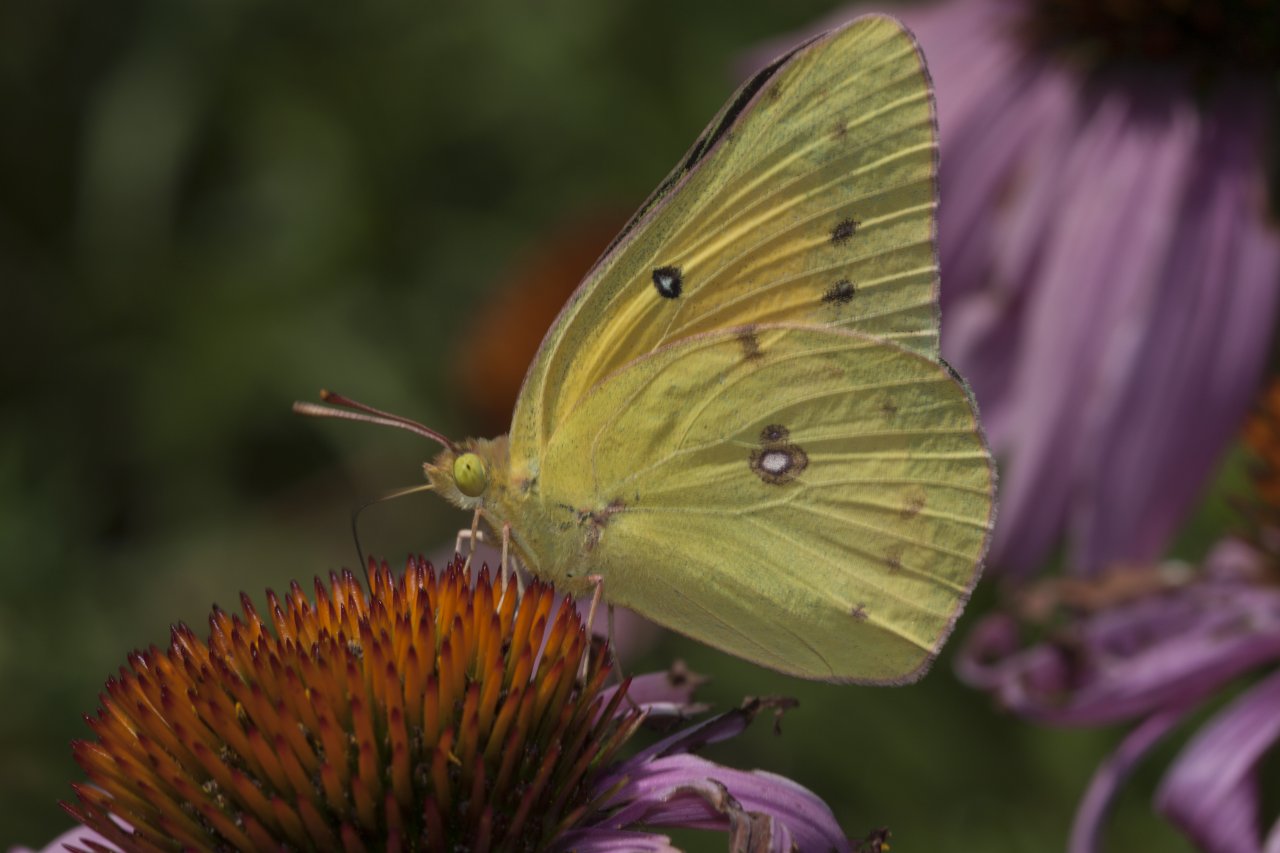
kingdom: Animalia
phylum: Arthropoda
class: Insecta
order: Lepidoptera
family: Pieridae
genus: Colias
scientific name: Colias eurytheme
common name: Orange Sulphur
